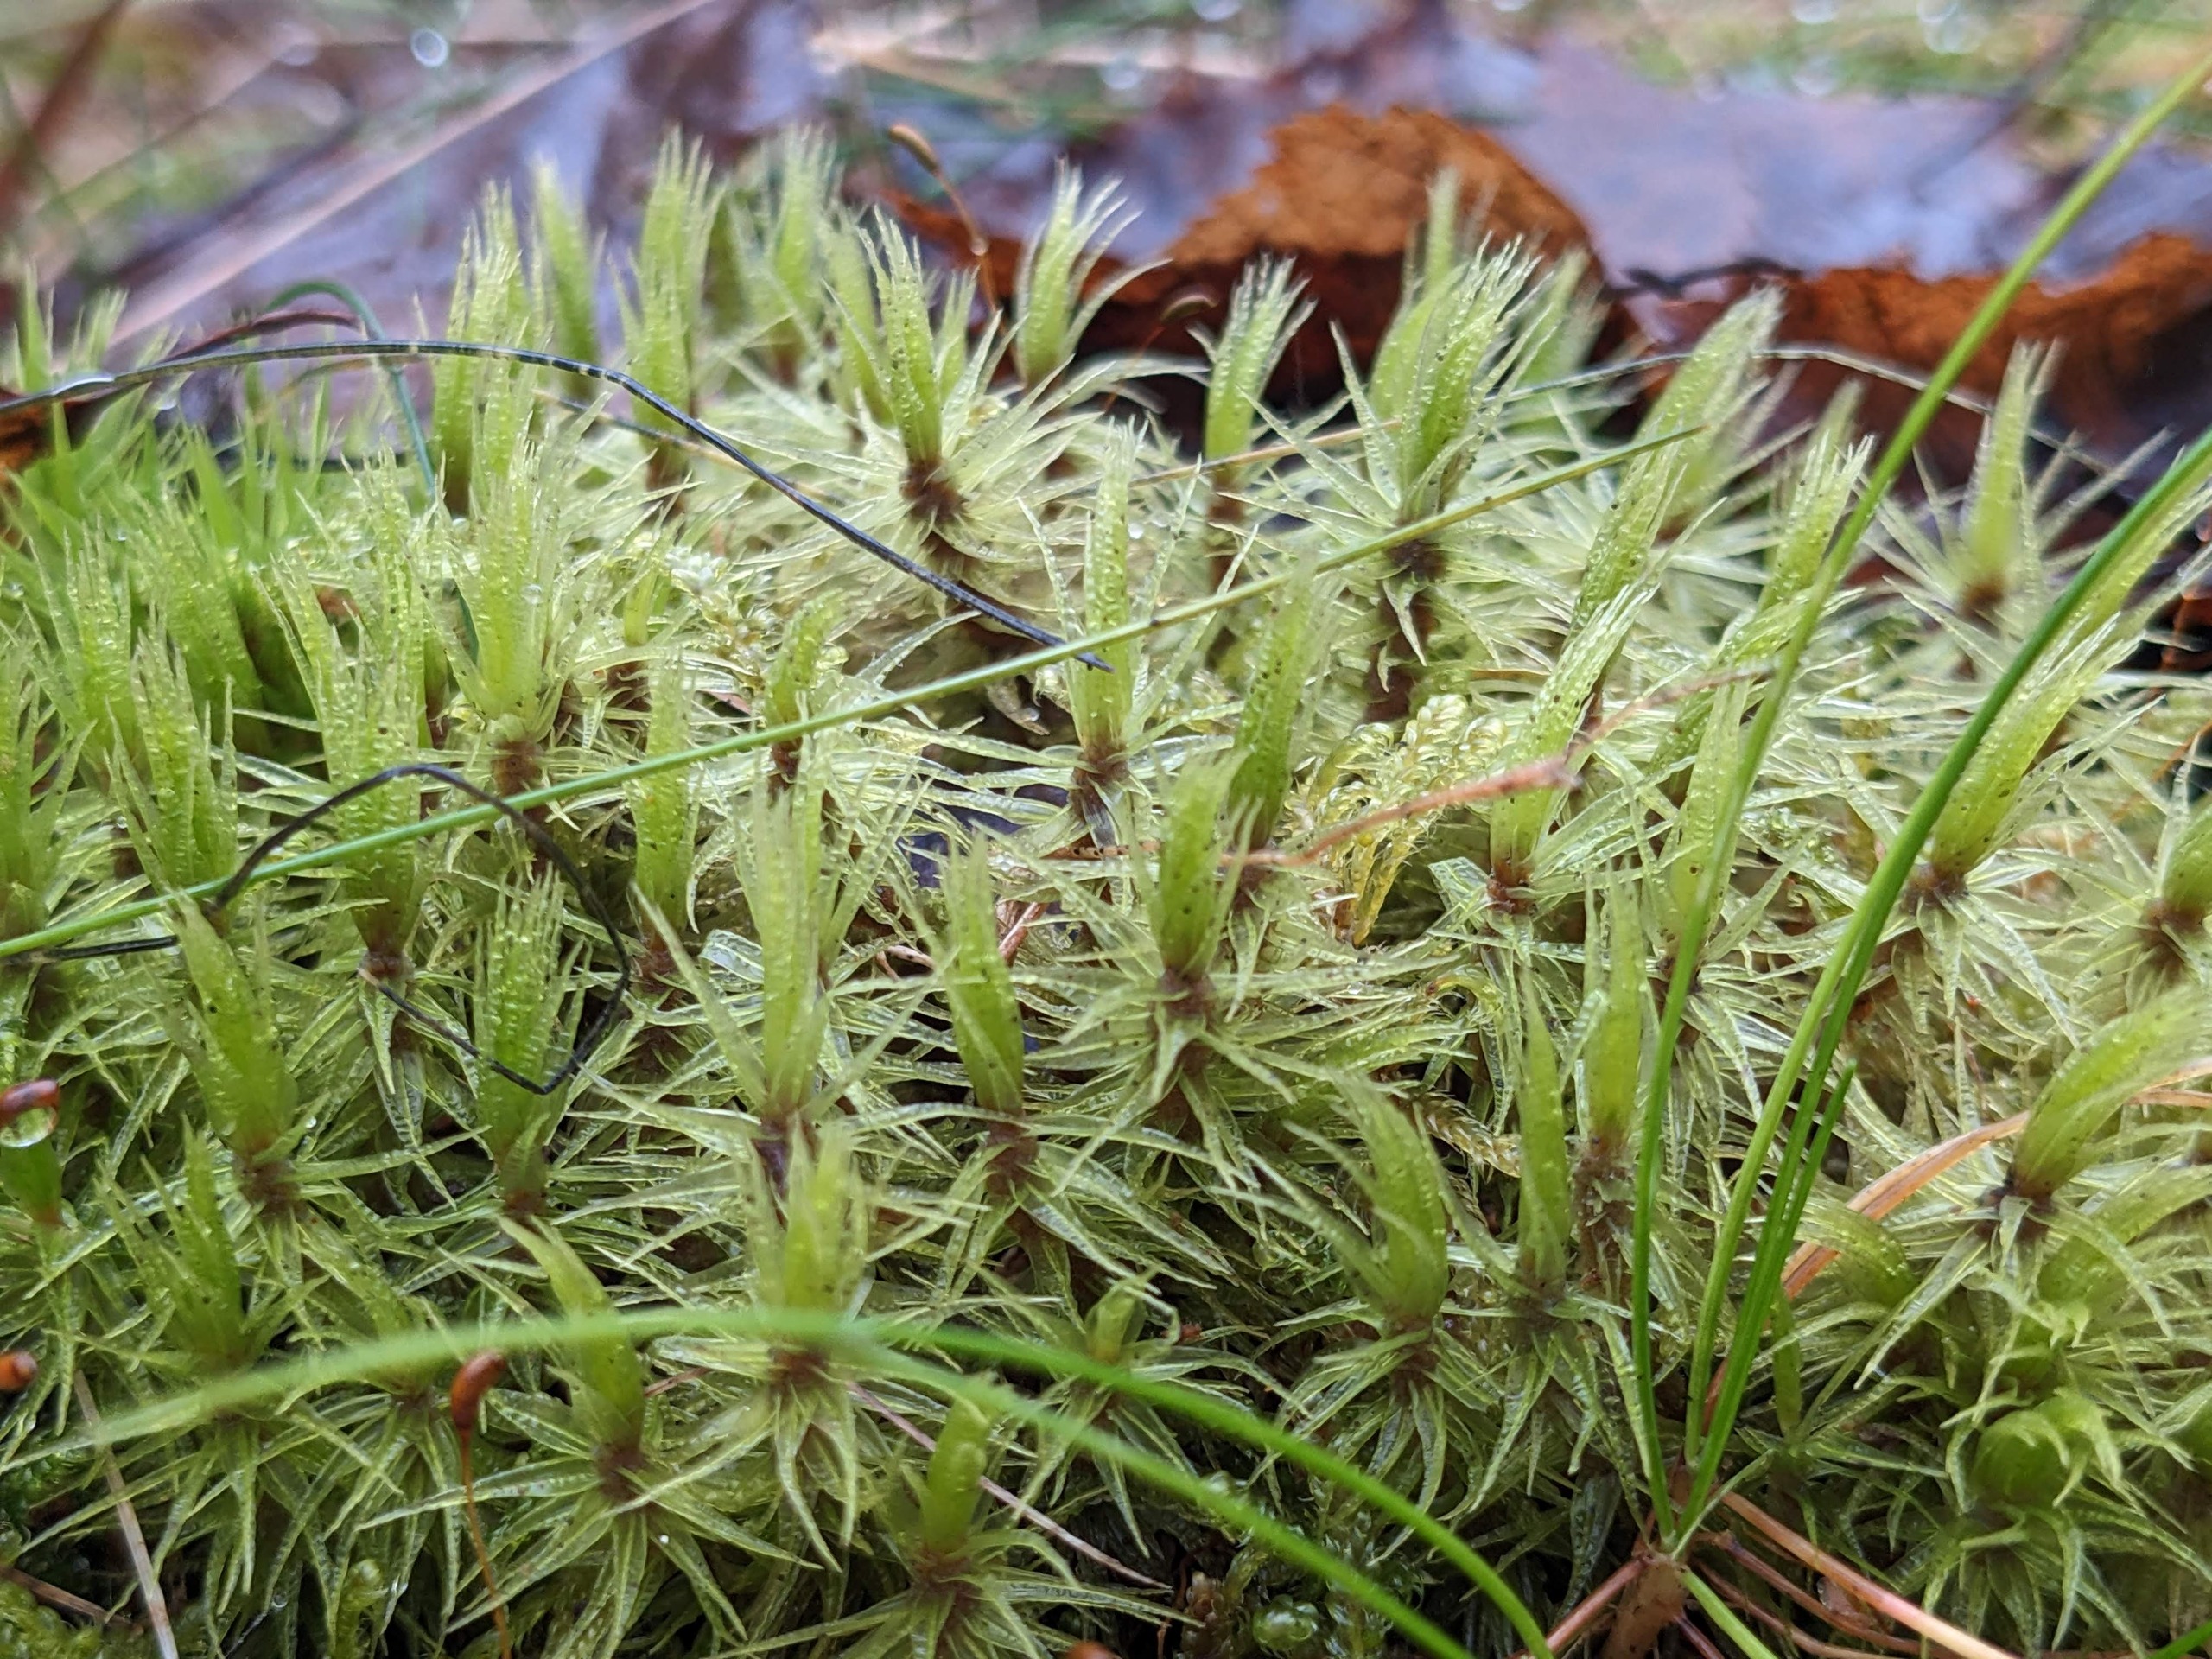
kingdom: Plantae
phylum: Bryophyta
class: Bryopsida
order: Dicranales
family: Dicranaceae
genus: Dicranum
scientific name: Dicranum polysetum
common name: Bølgebladet kløvtand
